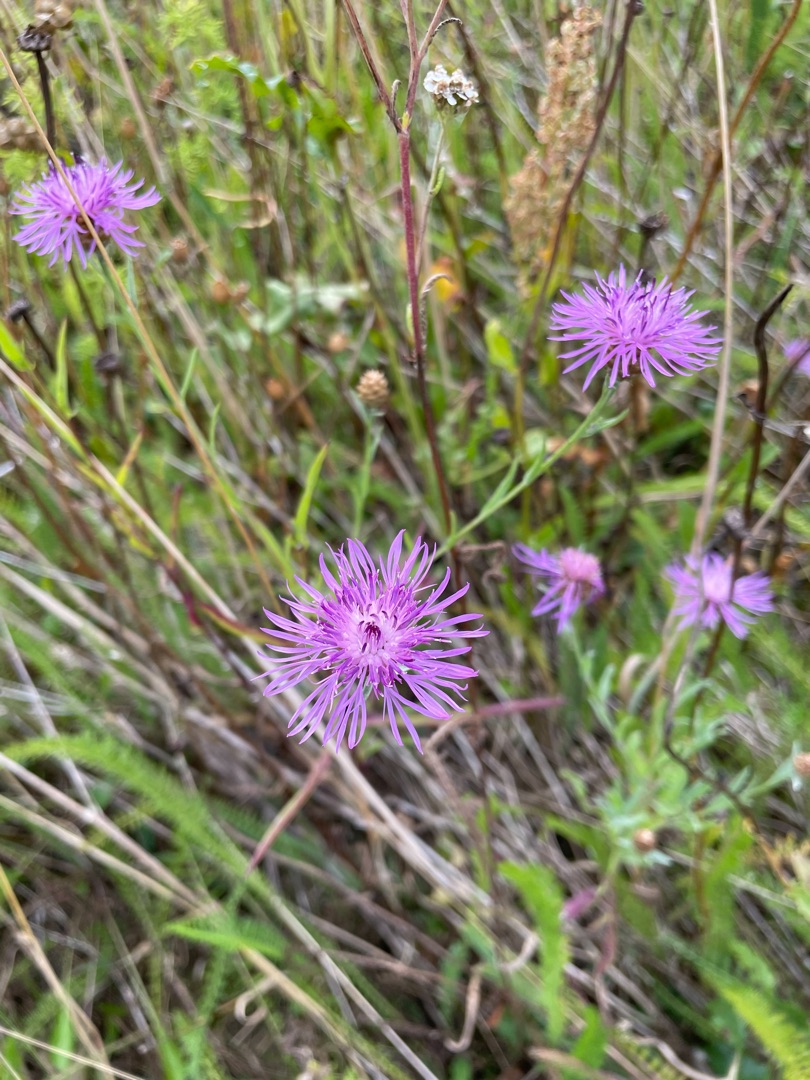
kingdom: Plantae
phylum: Tracheophyta
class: Magnoliopsida
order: Asterales
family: Asteraceae
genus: Centaurea
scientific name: Centaurea jacea
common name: Almindelig knopurt
